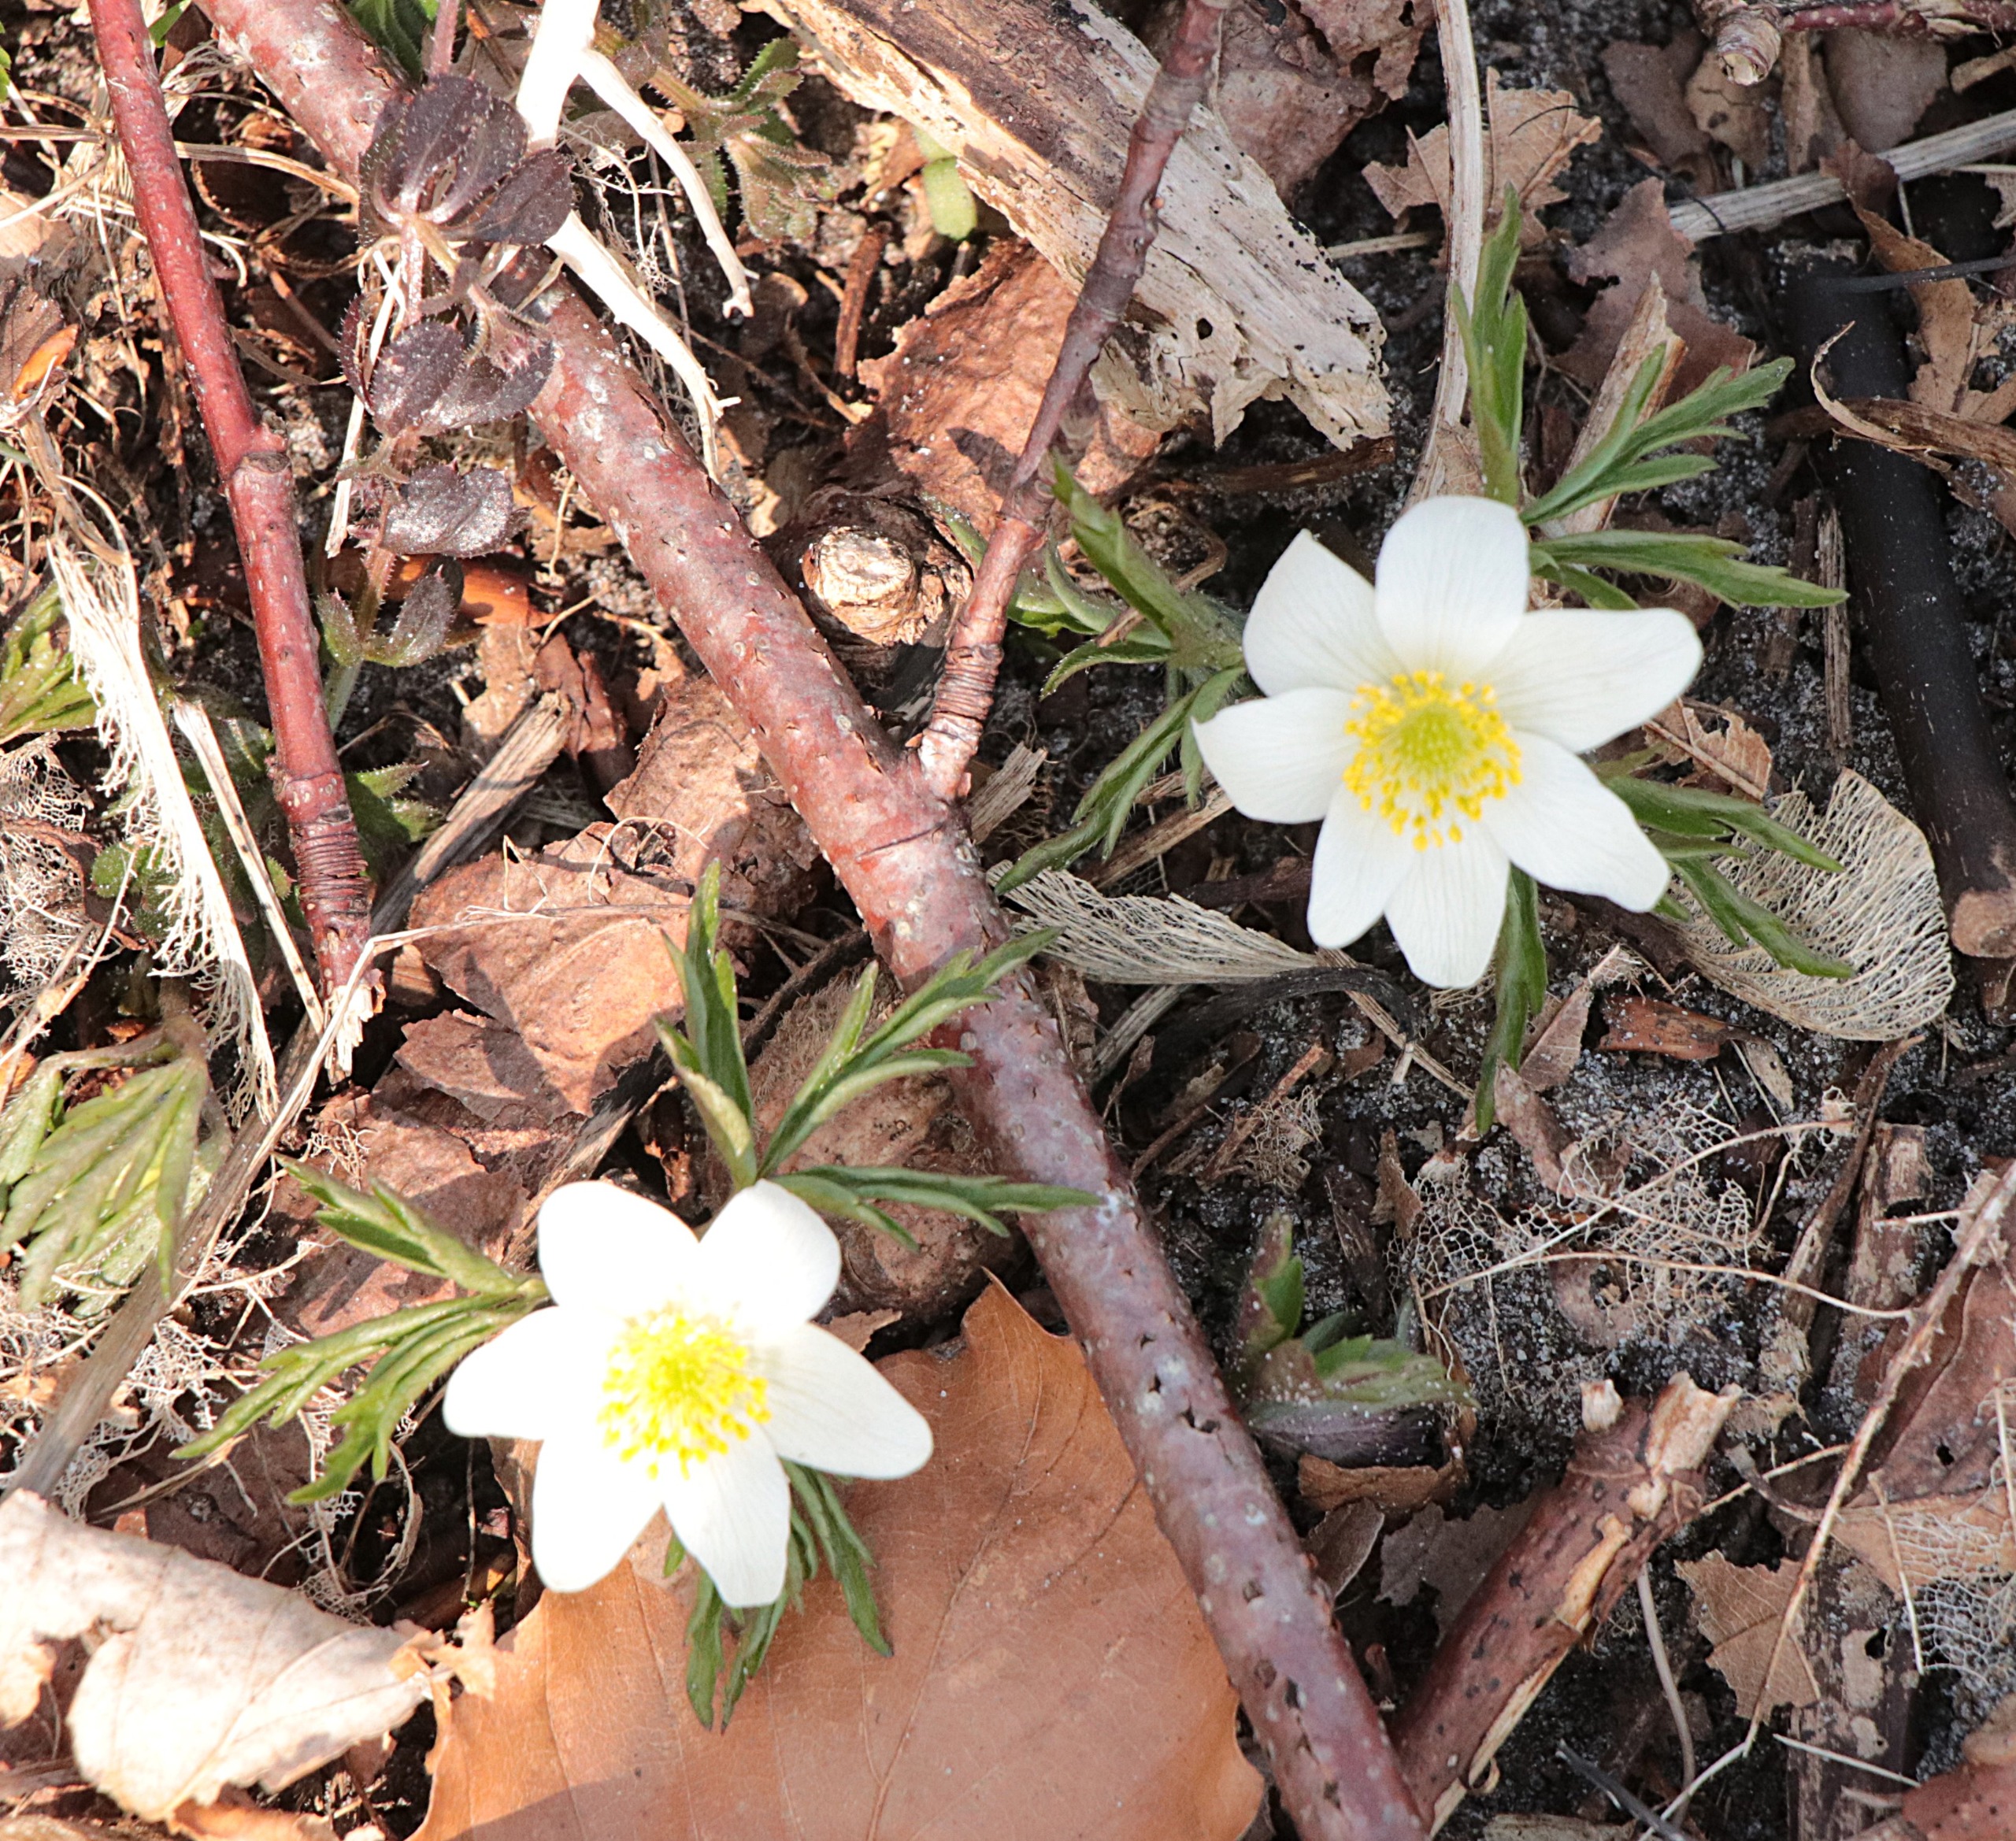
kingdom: Plantae
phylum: Tracheophyta
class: Magnoliopsida
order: Ranunculales
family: Ranunculaceae
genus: Anemone
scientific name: Anemone nemorosa
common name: Hvid anemone
